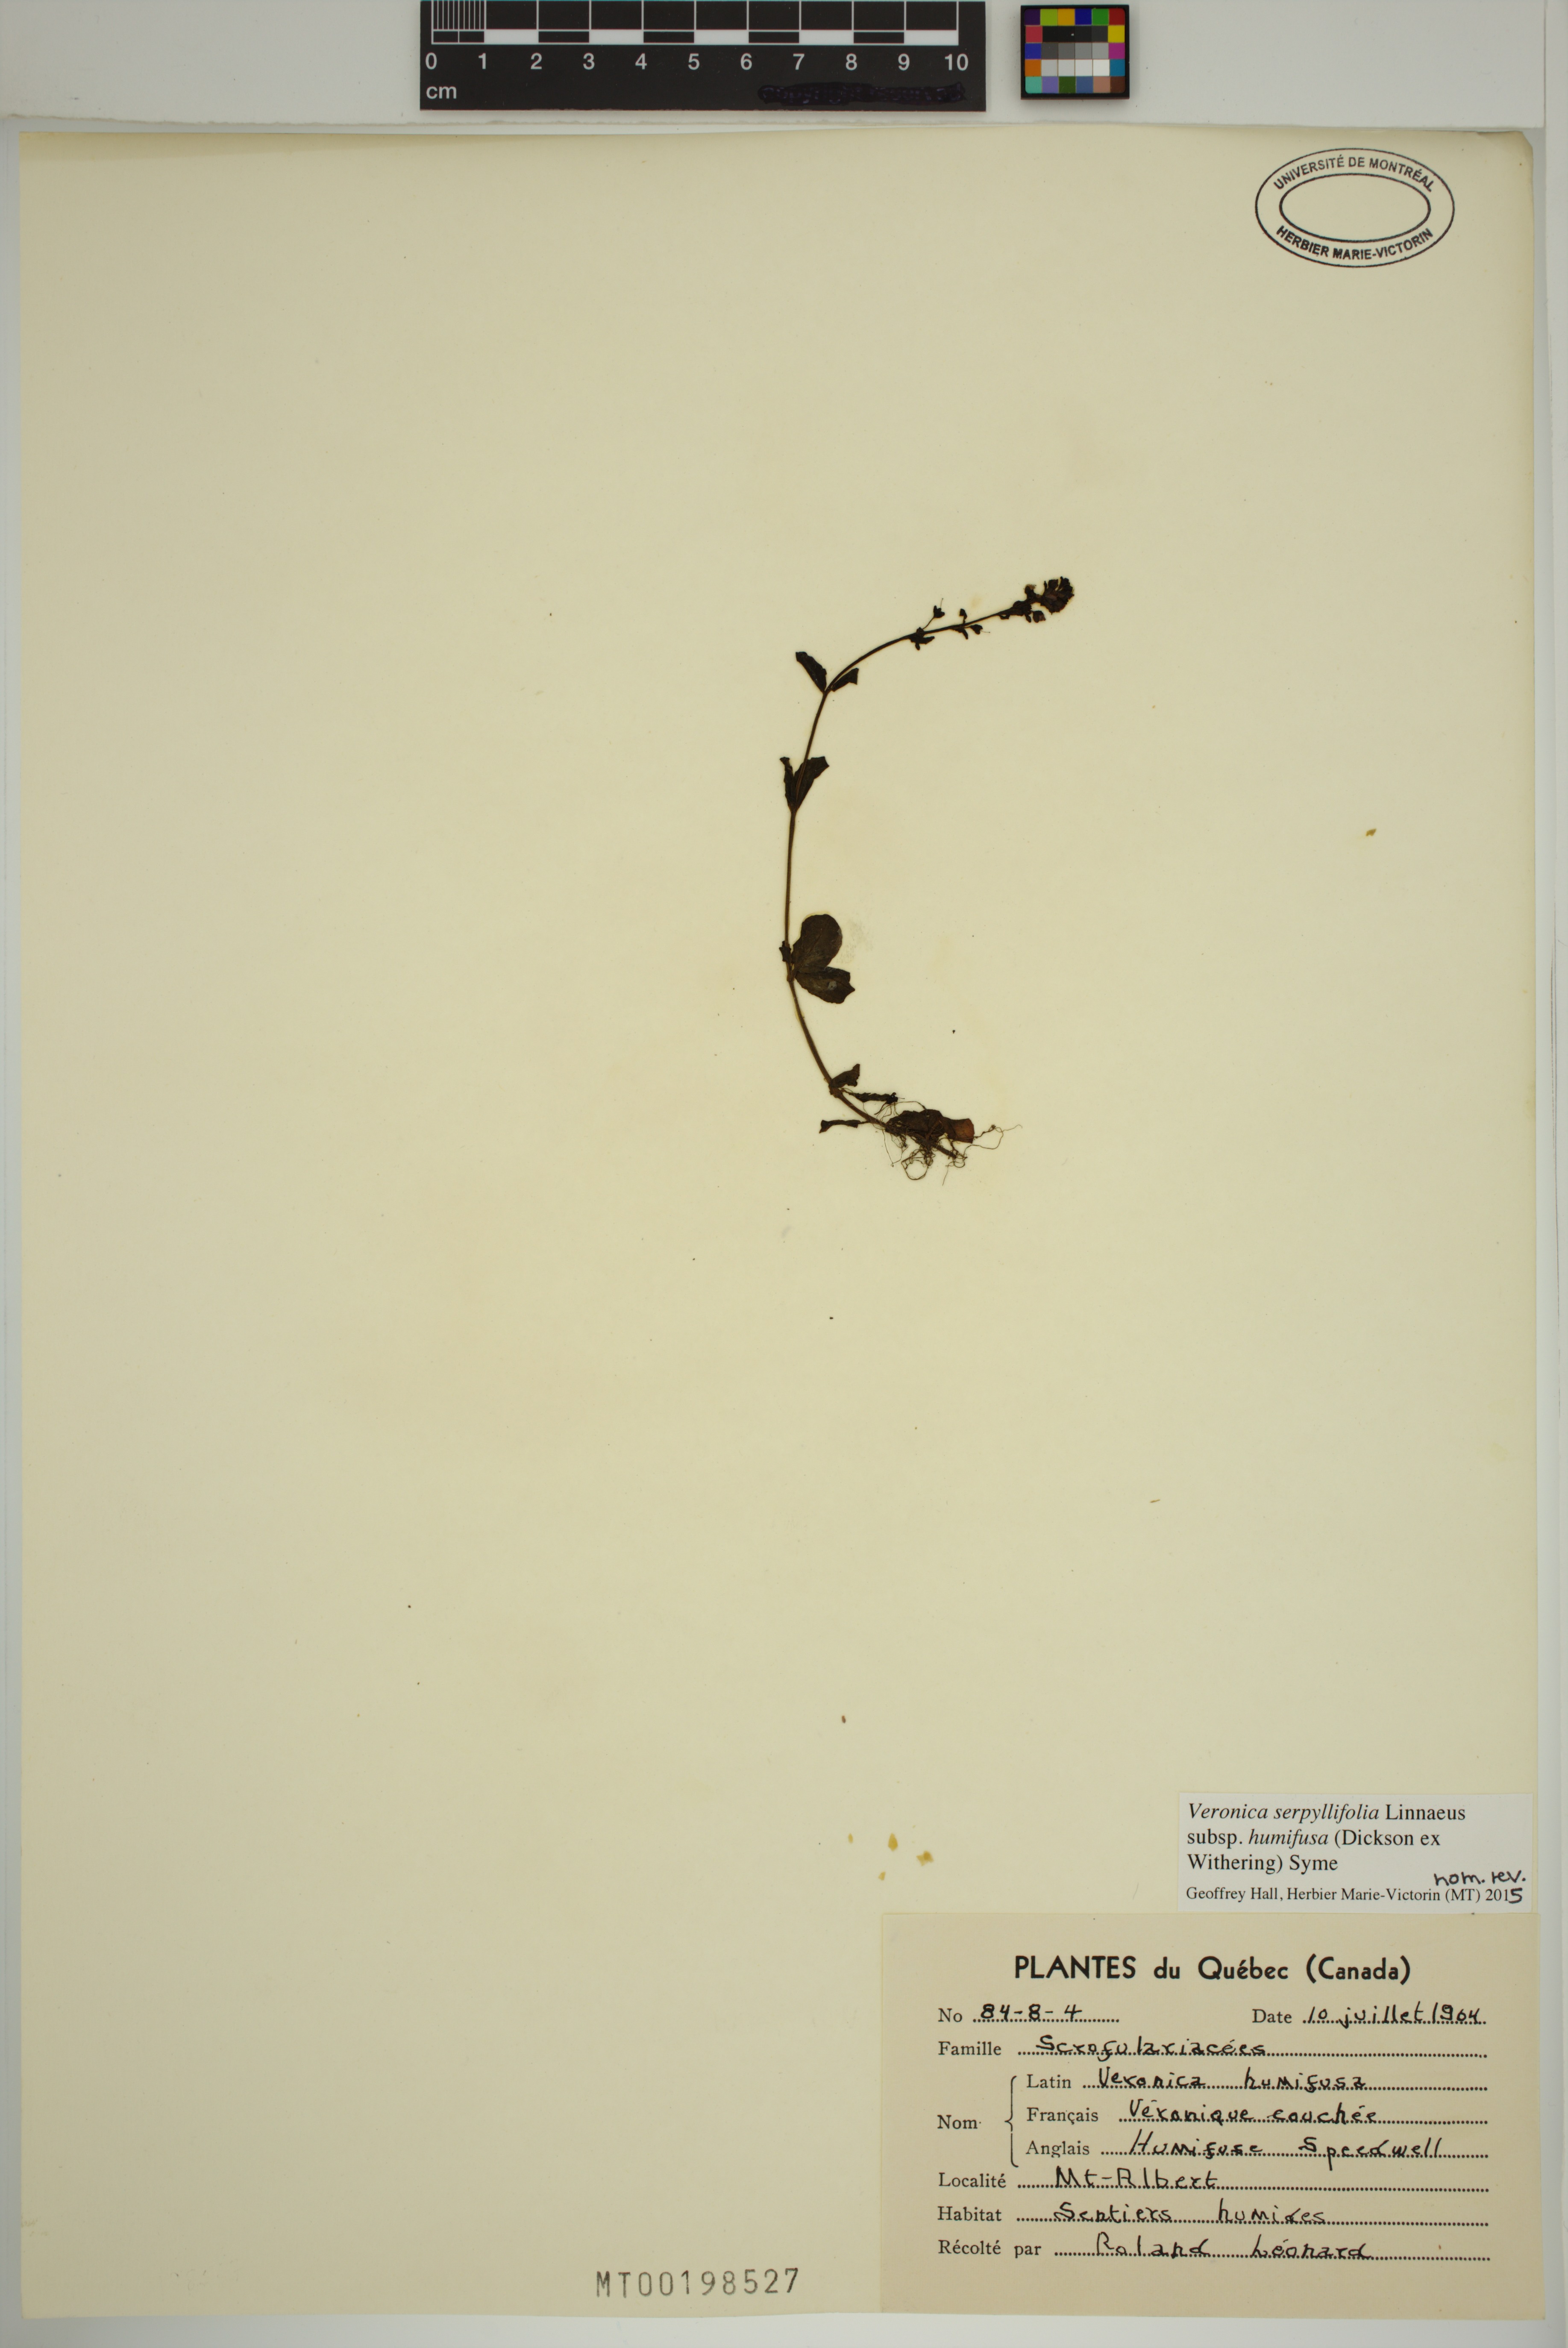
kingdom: Plantae
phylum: Tracheophyta
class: Magnoliopsida
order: Lamiales
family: Plantaginaceae
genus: Veronica
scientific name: Veronica serpyllifolia
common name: Thyme-leaved speedwell
